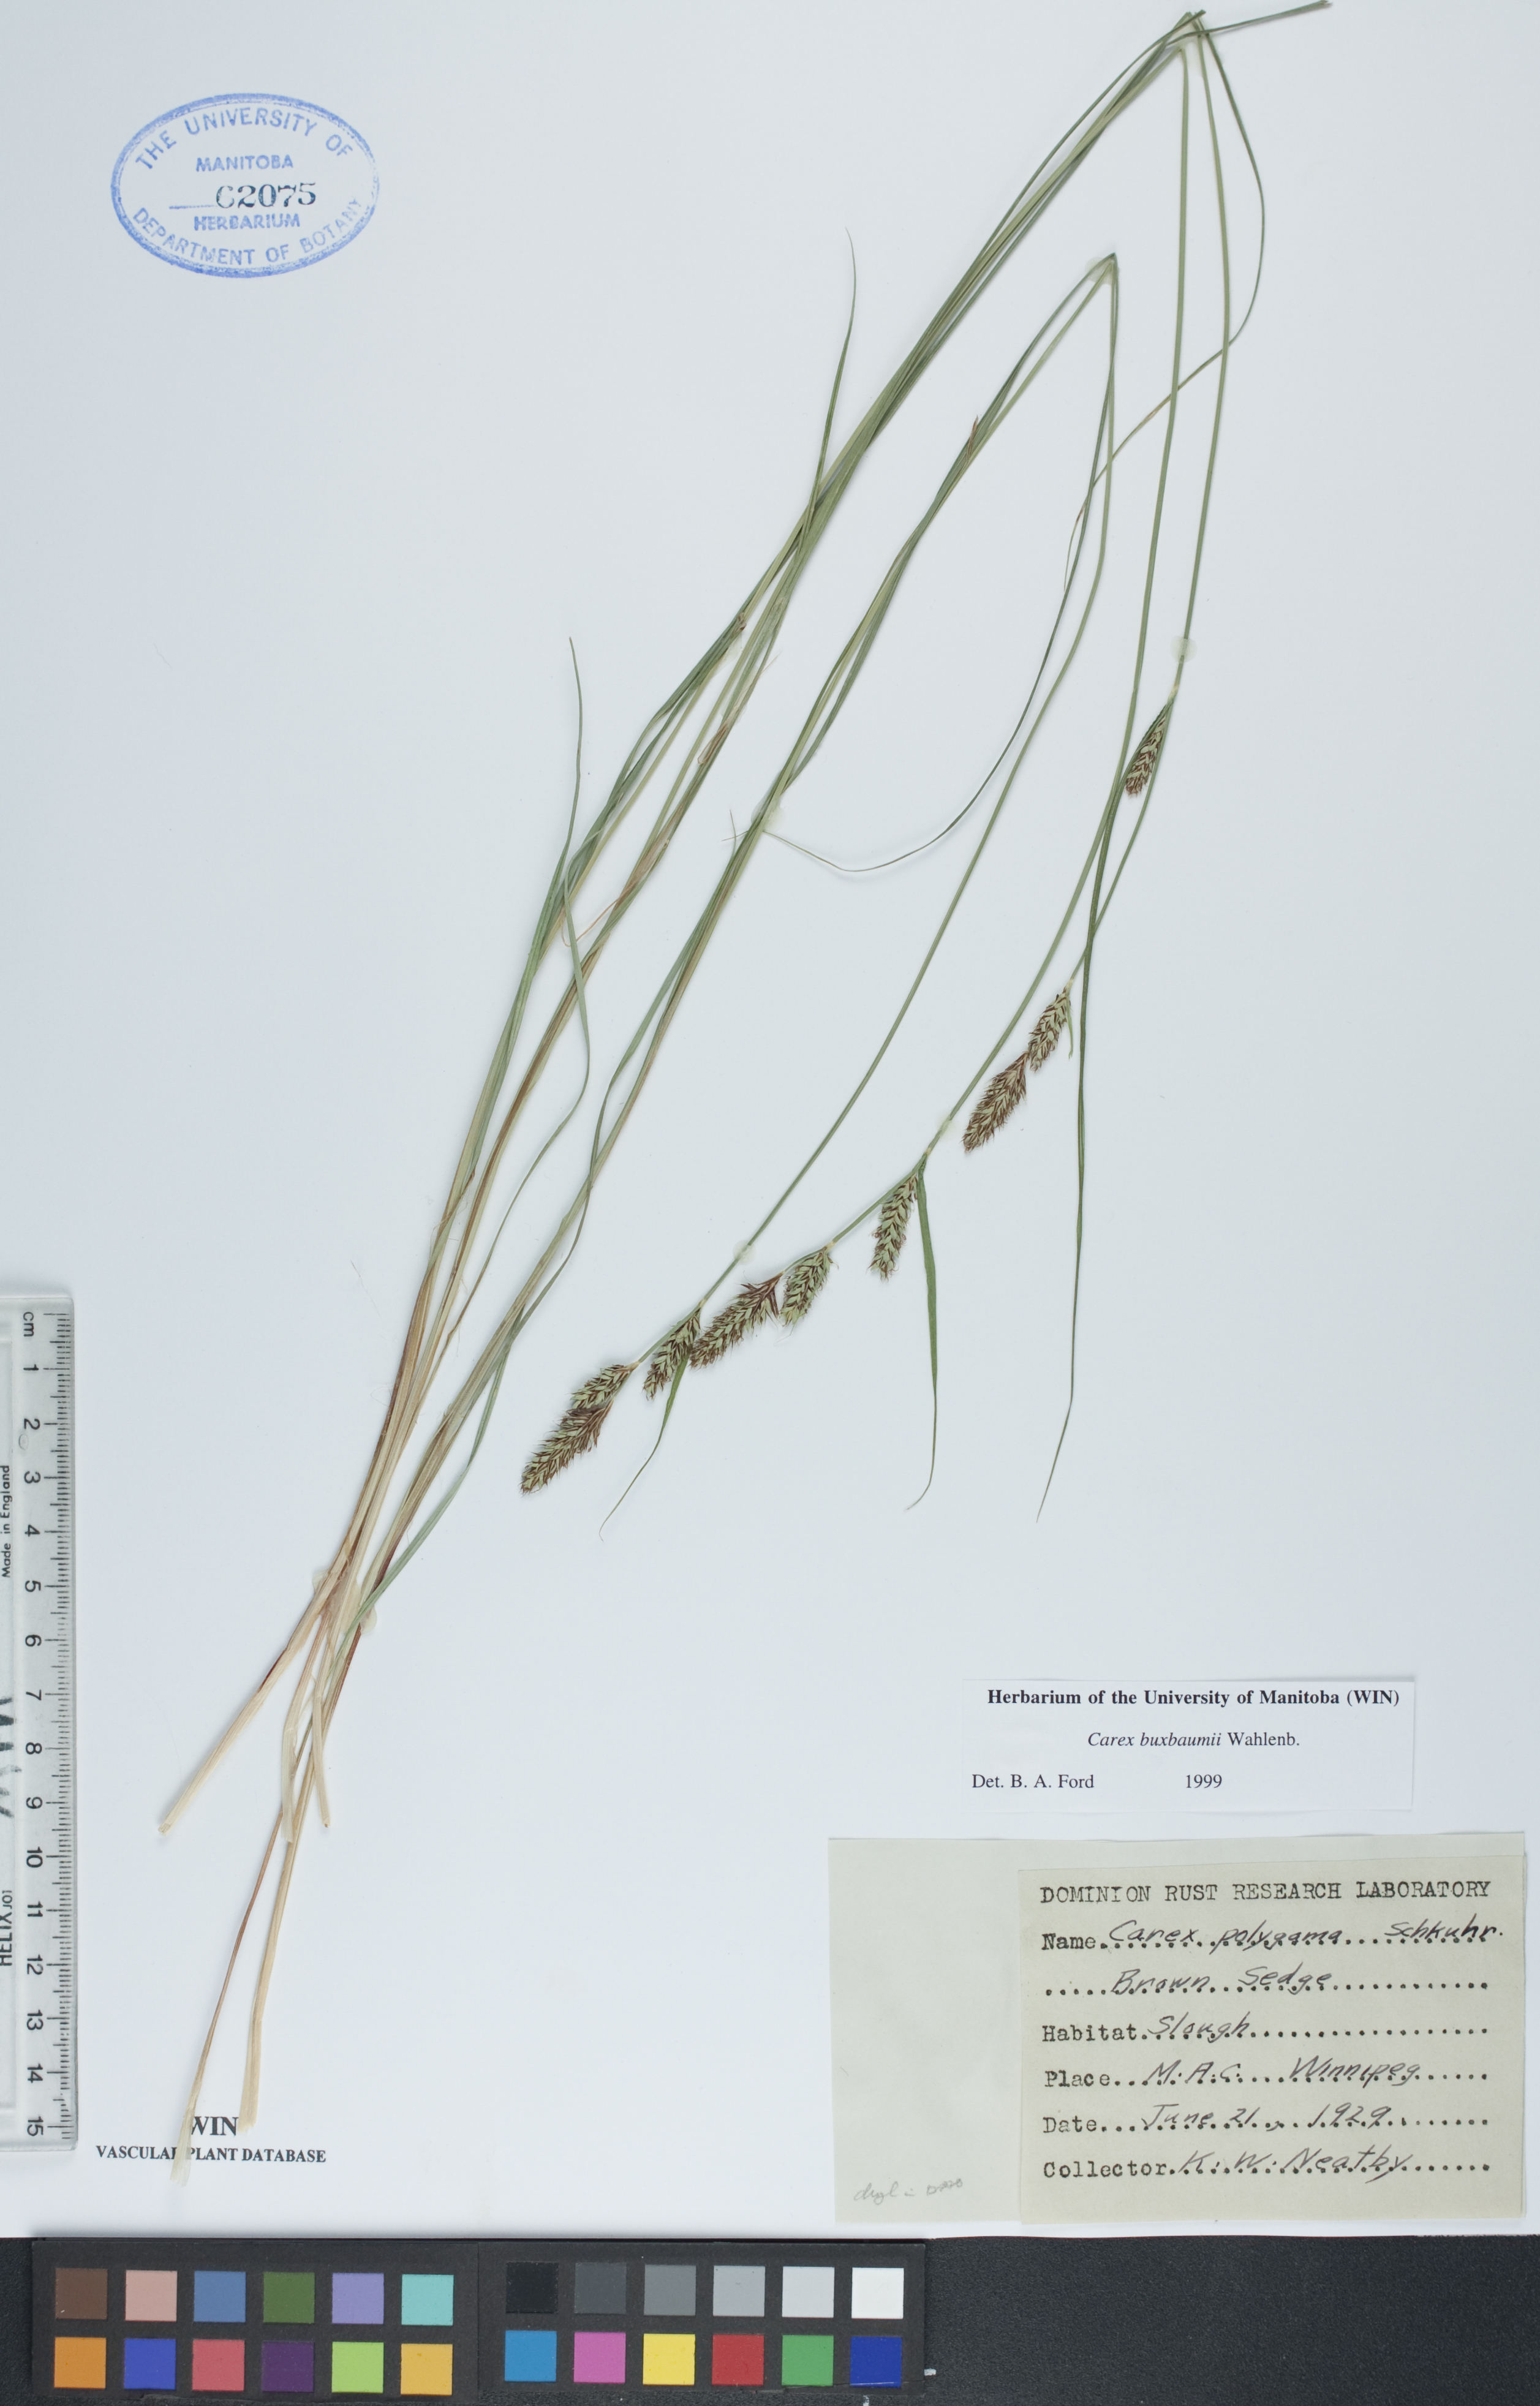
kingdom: Plantae
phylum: Tracheophyta
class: Liliopsida
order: Poales
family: Cyperaceae
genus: Carex
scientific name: Carex buxbaumii
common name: Club sedge
